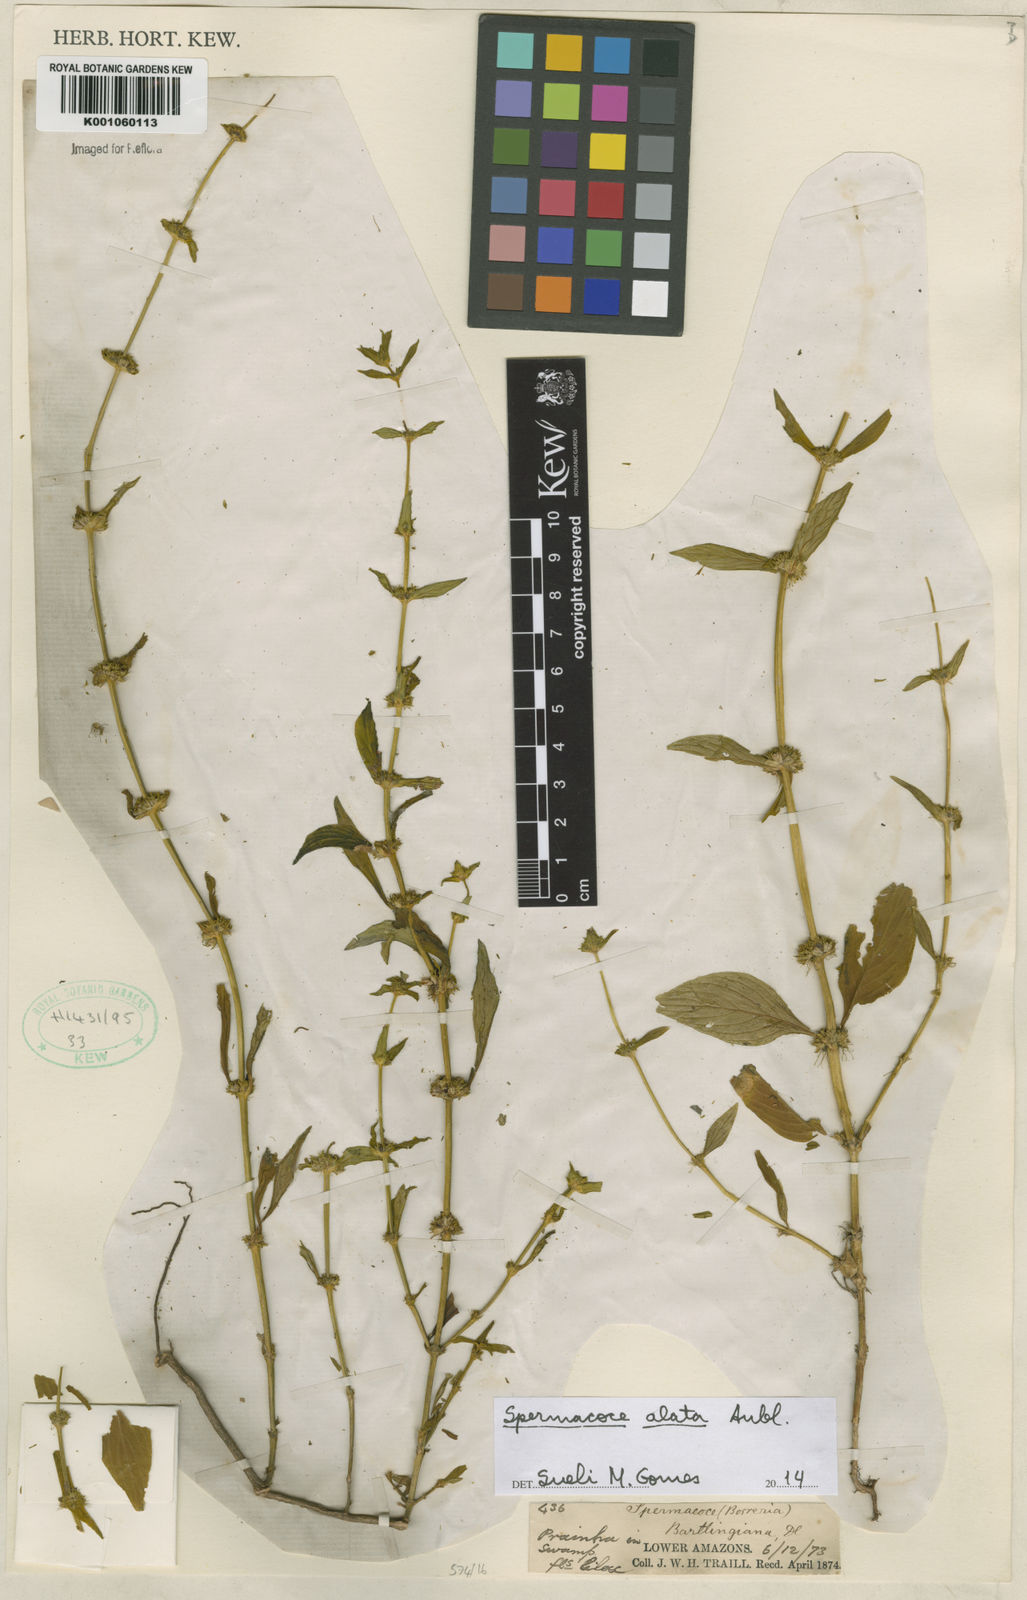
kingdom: Plantae
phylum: Tracheophyta
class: Magnoliopsida
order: Gentianales
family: Rubiaceae
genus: Spermacoce
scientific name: Spermacoce
